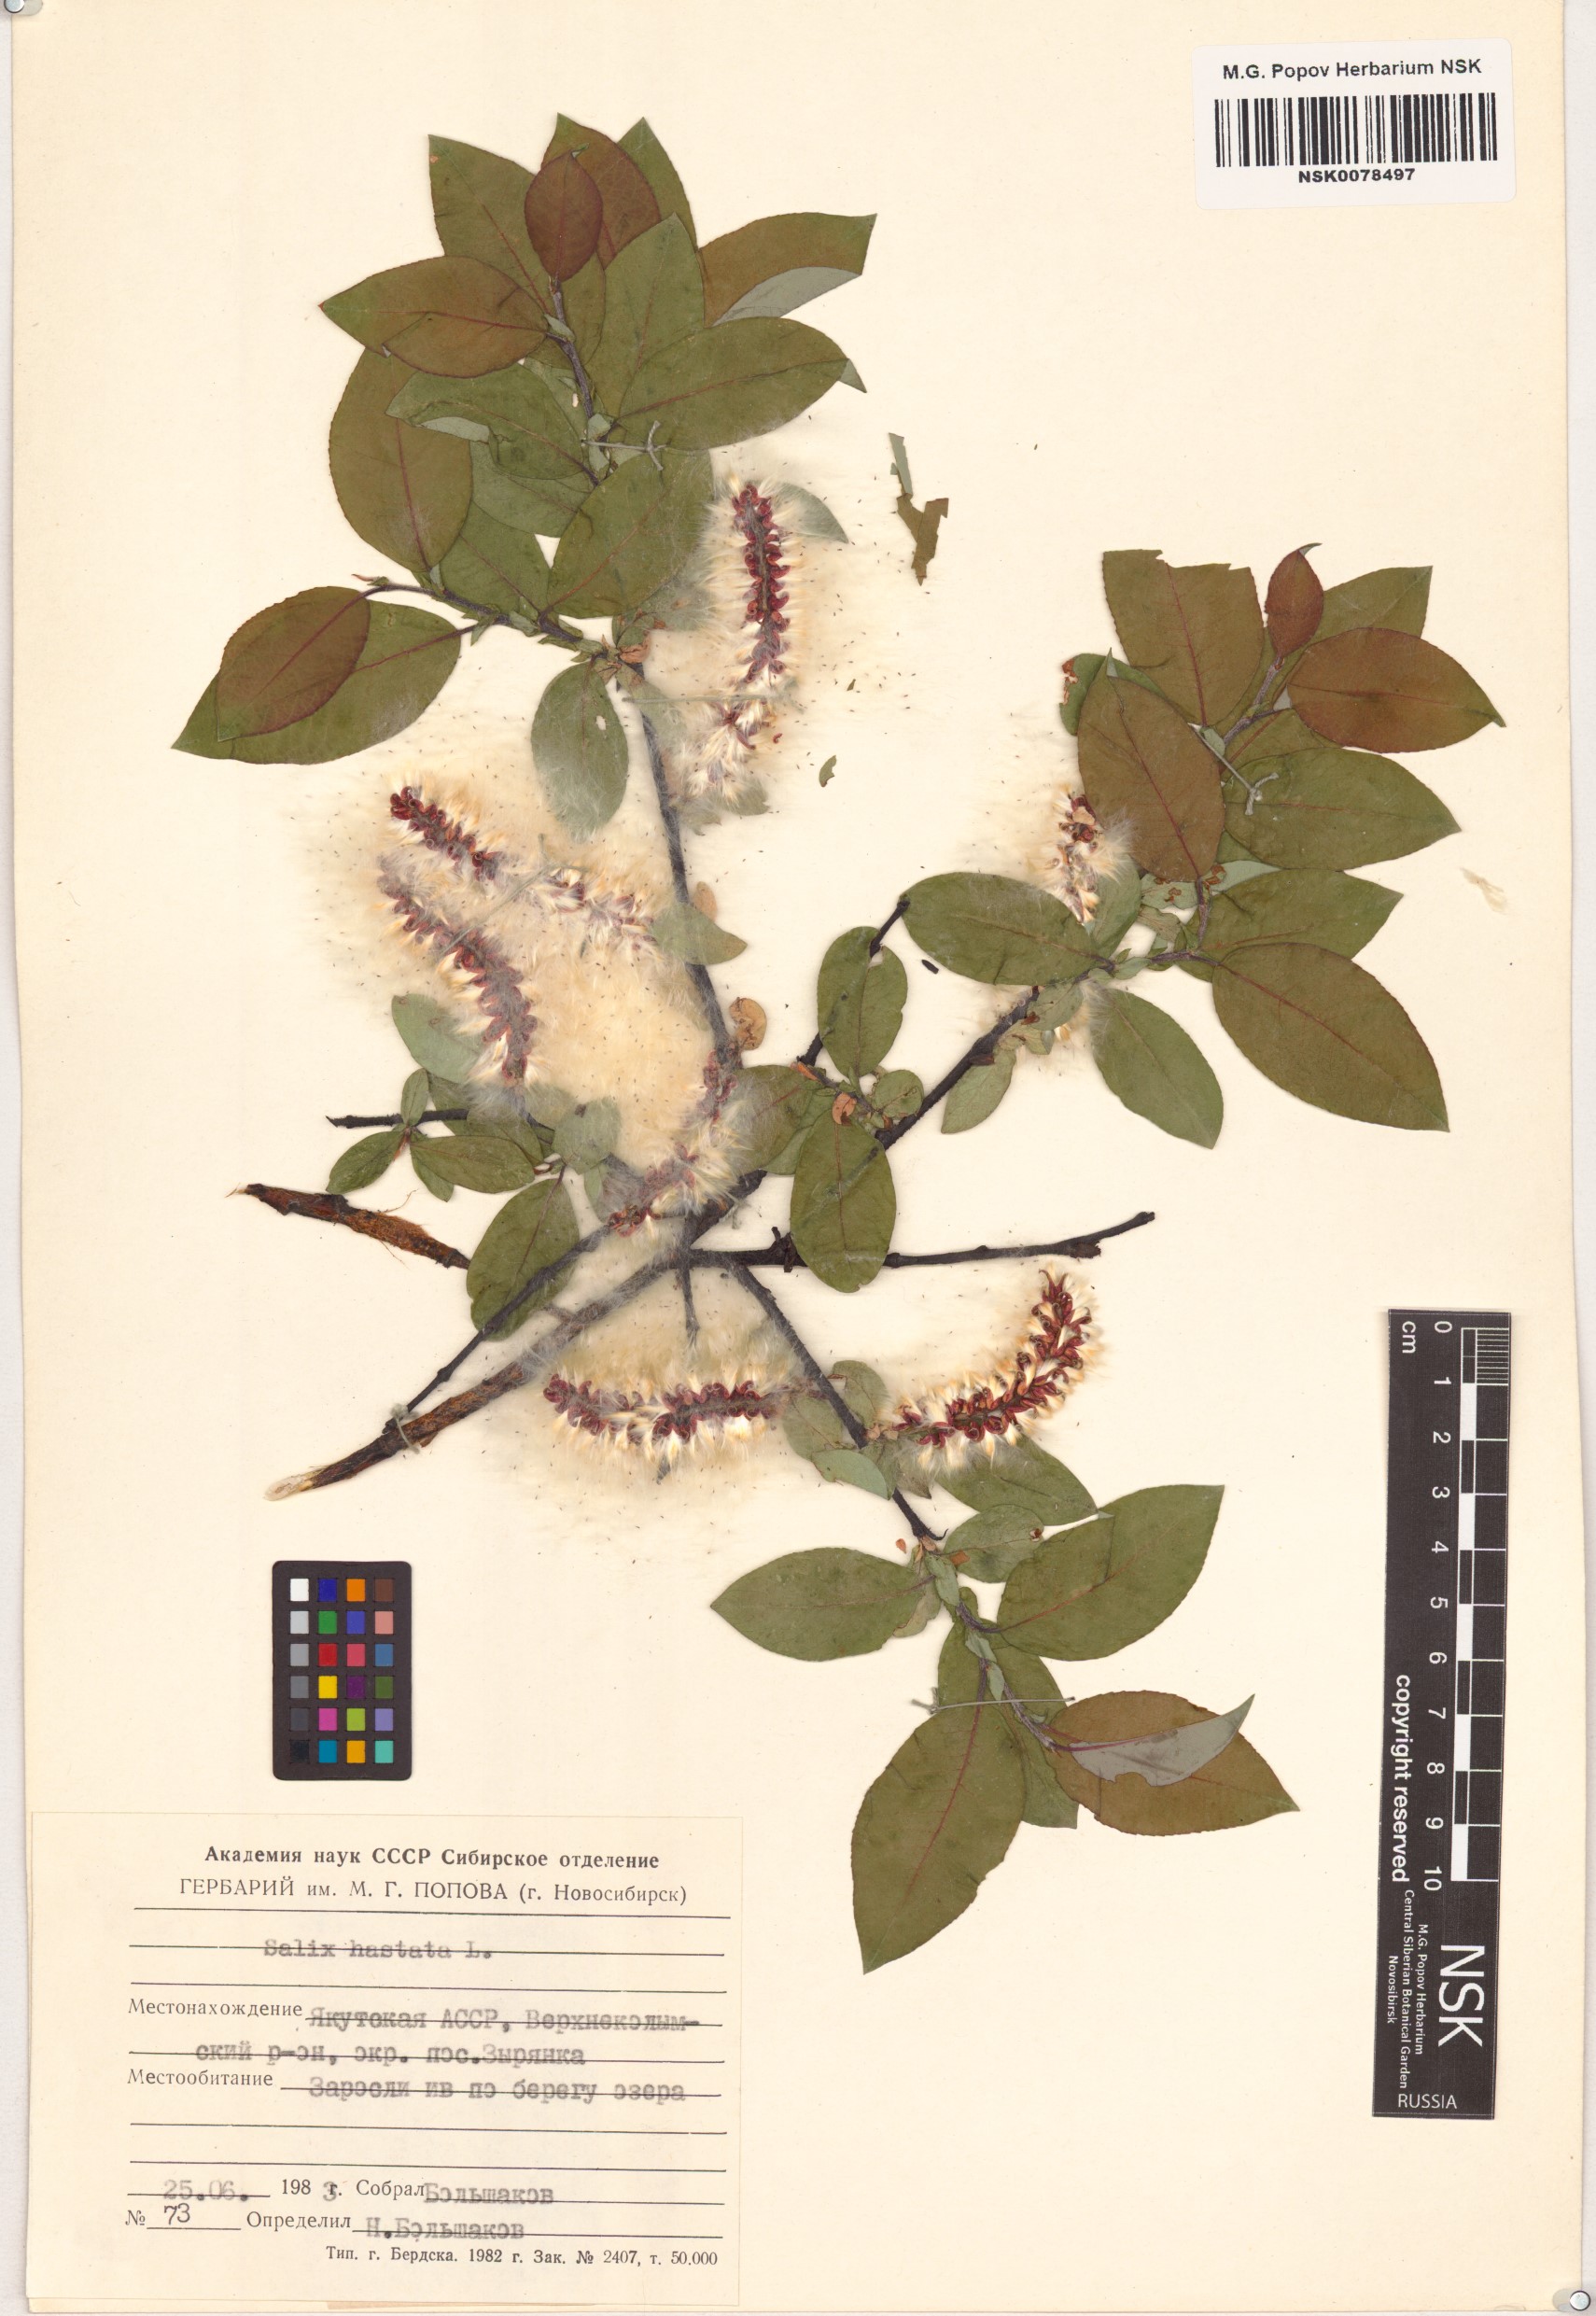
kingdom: Plantae
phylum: Tracheophyta
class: Magnoliopsida
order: Malpighiales
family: Salicaceae
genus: Salix
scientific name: Salix hastata
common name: Halberd willow
